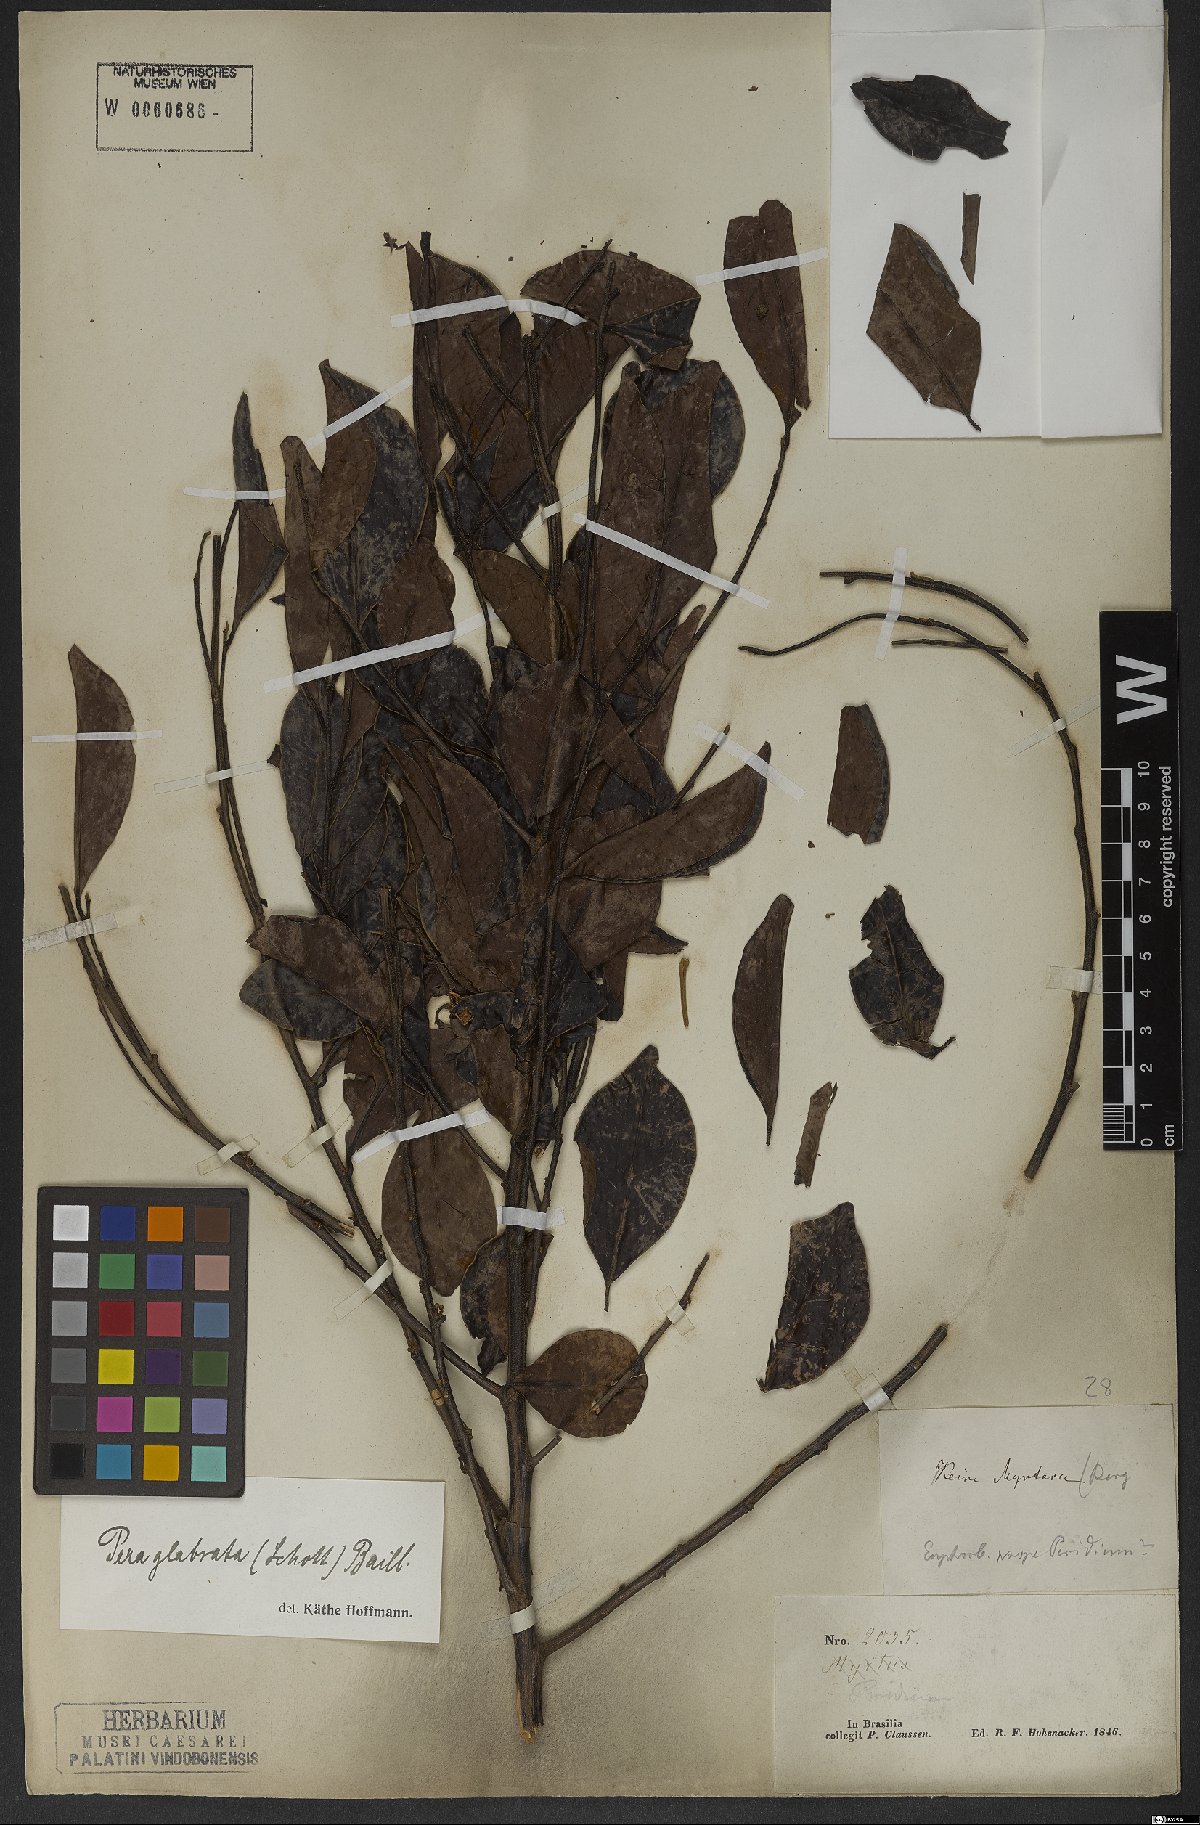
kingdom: Plantae
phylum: Tracheophyta
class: Magnoliopsida
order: Malpighiales
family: Peraceae
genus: Pera
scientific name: Pera glabrata
